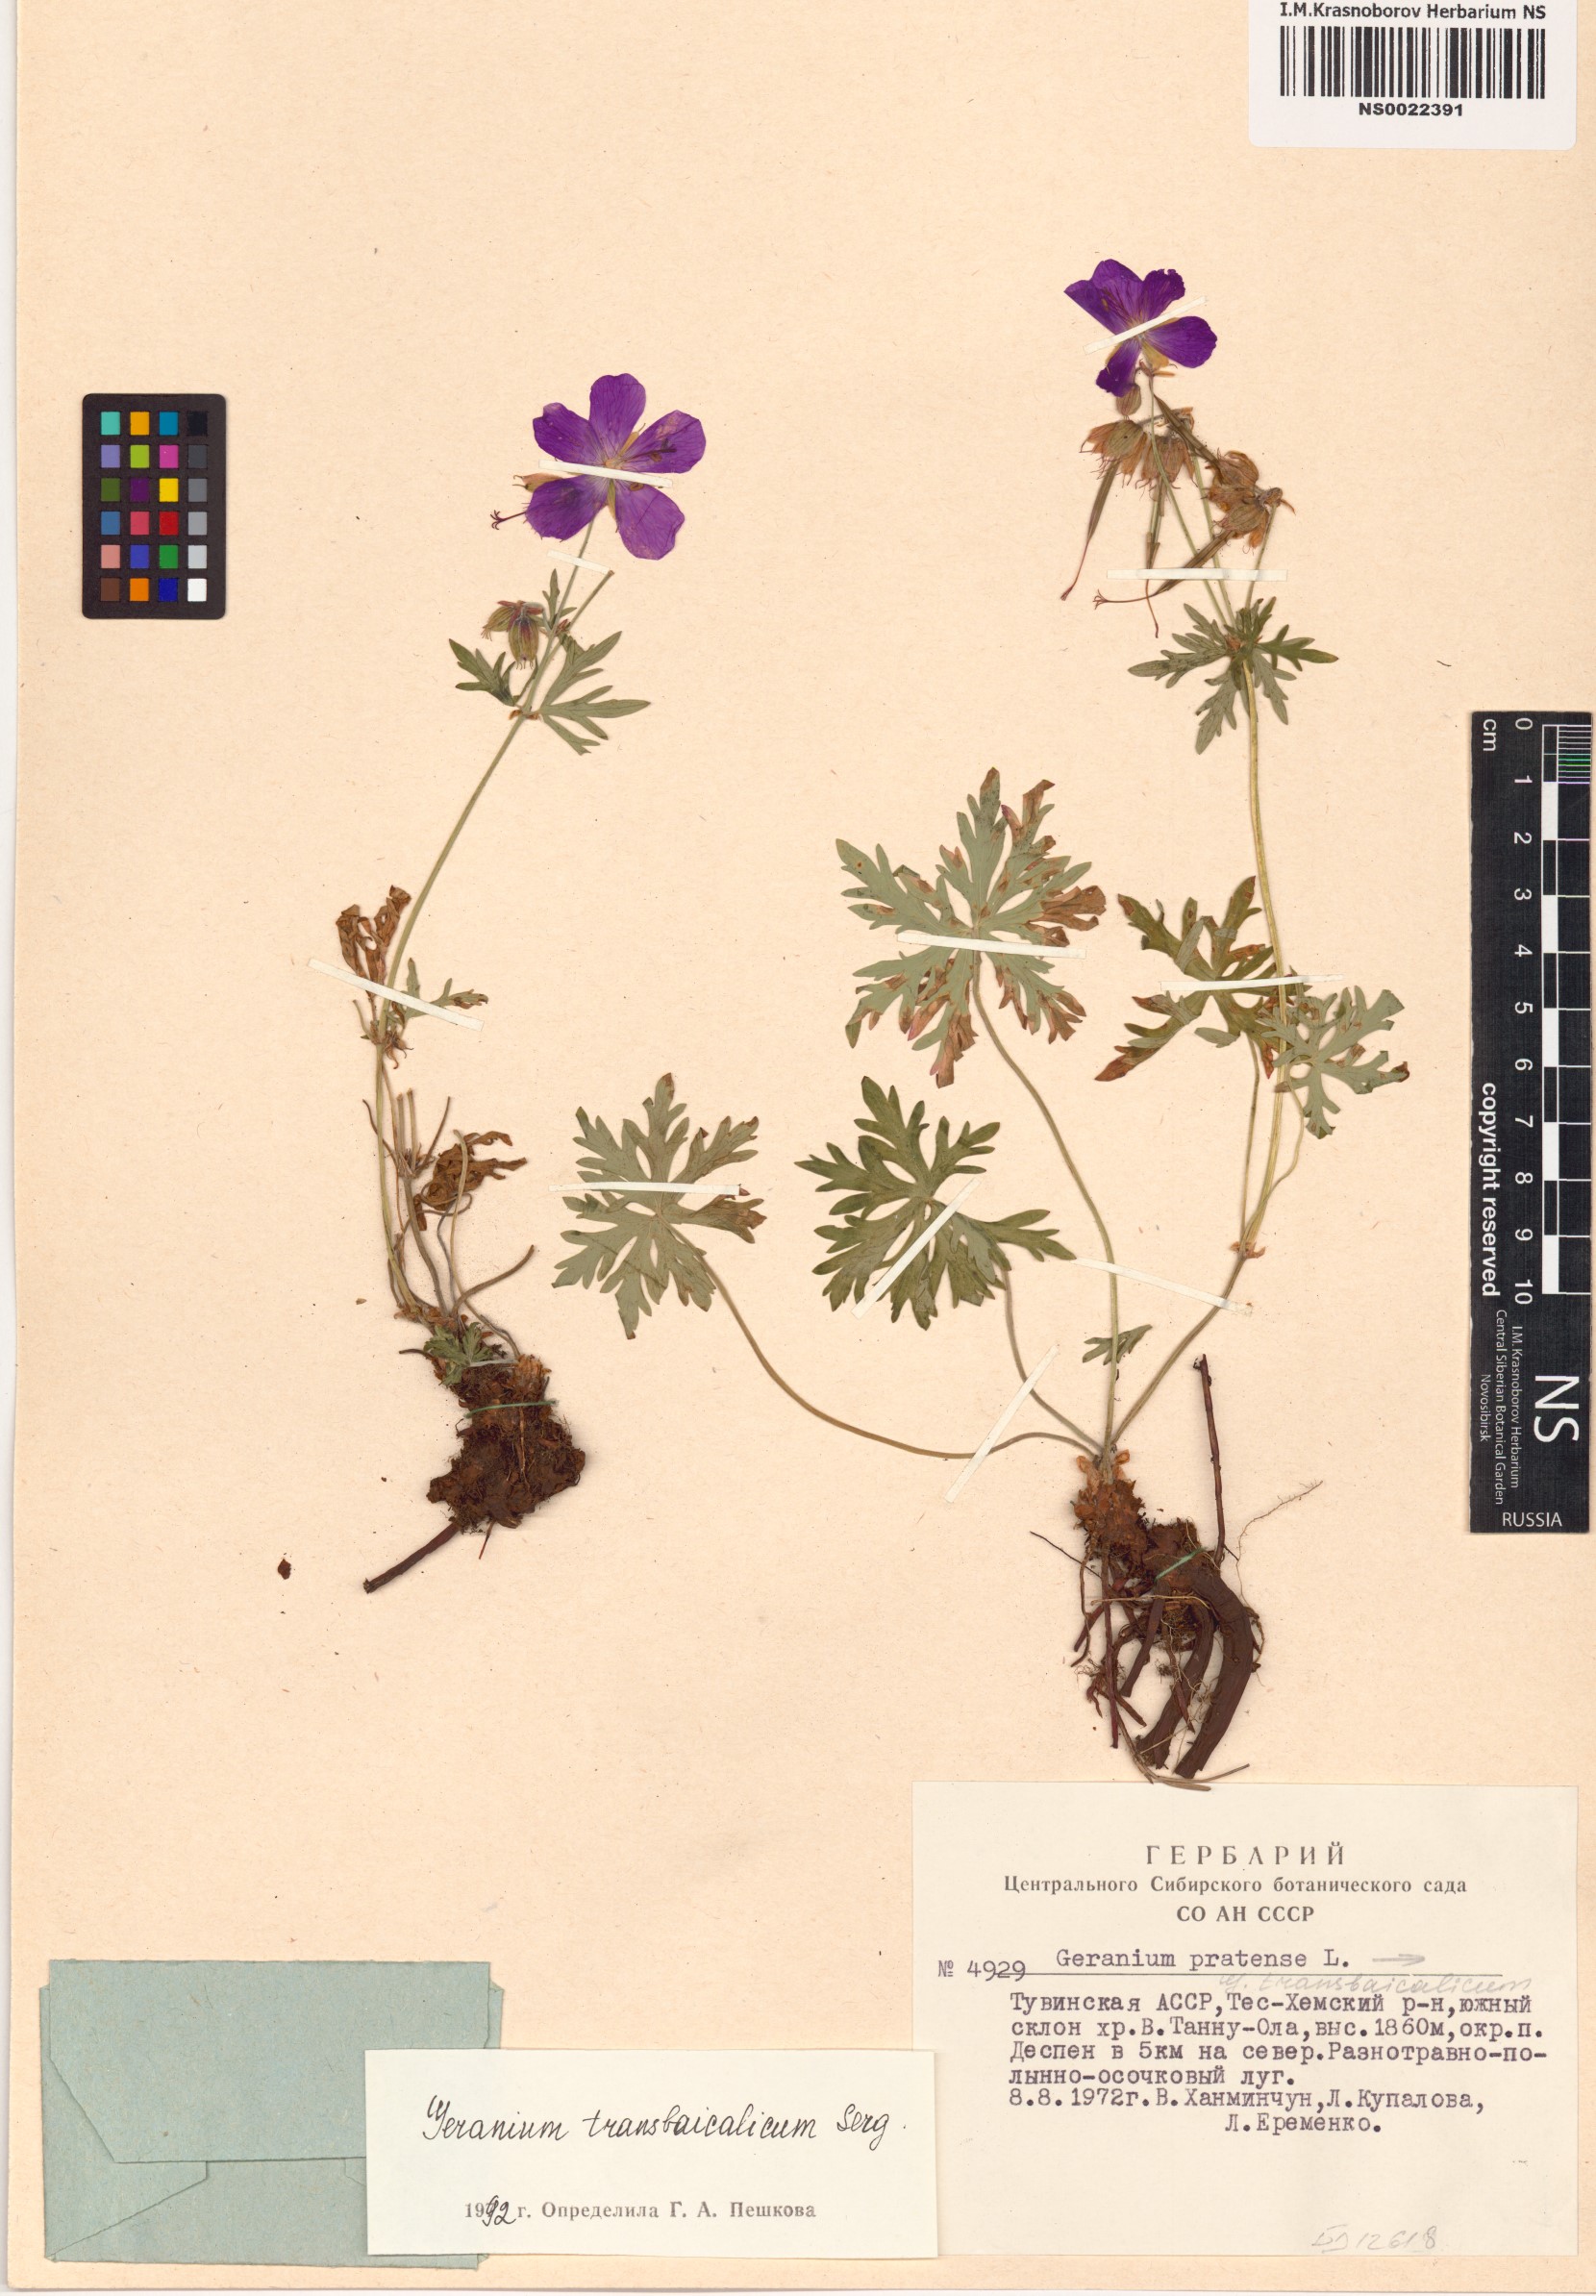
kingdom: Plantae
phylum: Tracheophyta
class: Magnoliopsida
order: Geraniales
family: Geraniaceae
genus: Geranium
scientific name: Geranium pratense
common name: Meadow crane's-bill
